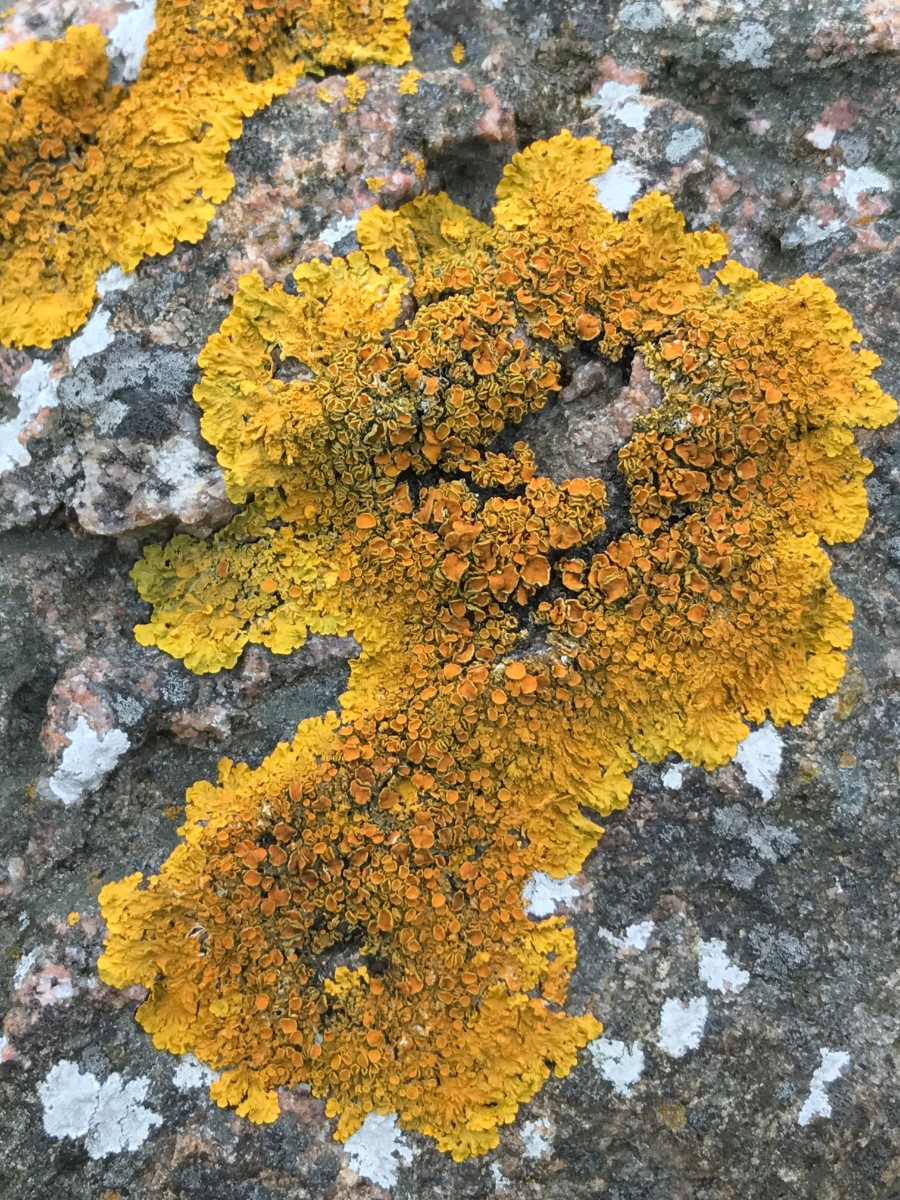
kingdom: Fungi
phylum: Ascomycota
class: Lecanoromycetes
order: Teloschistales
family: Teloschistaceae
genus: Xanthoria
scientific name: Xanthoria parietina
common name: almindelig væggelav
